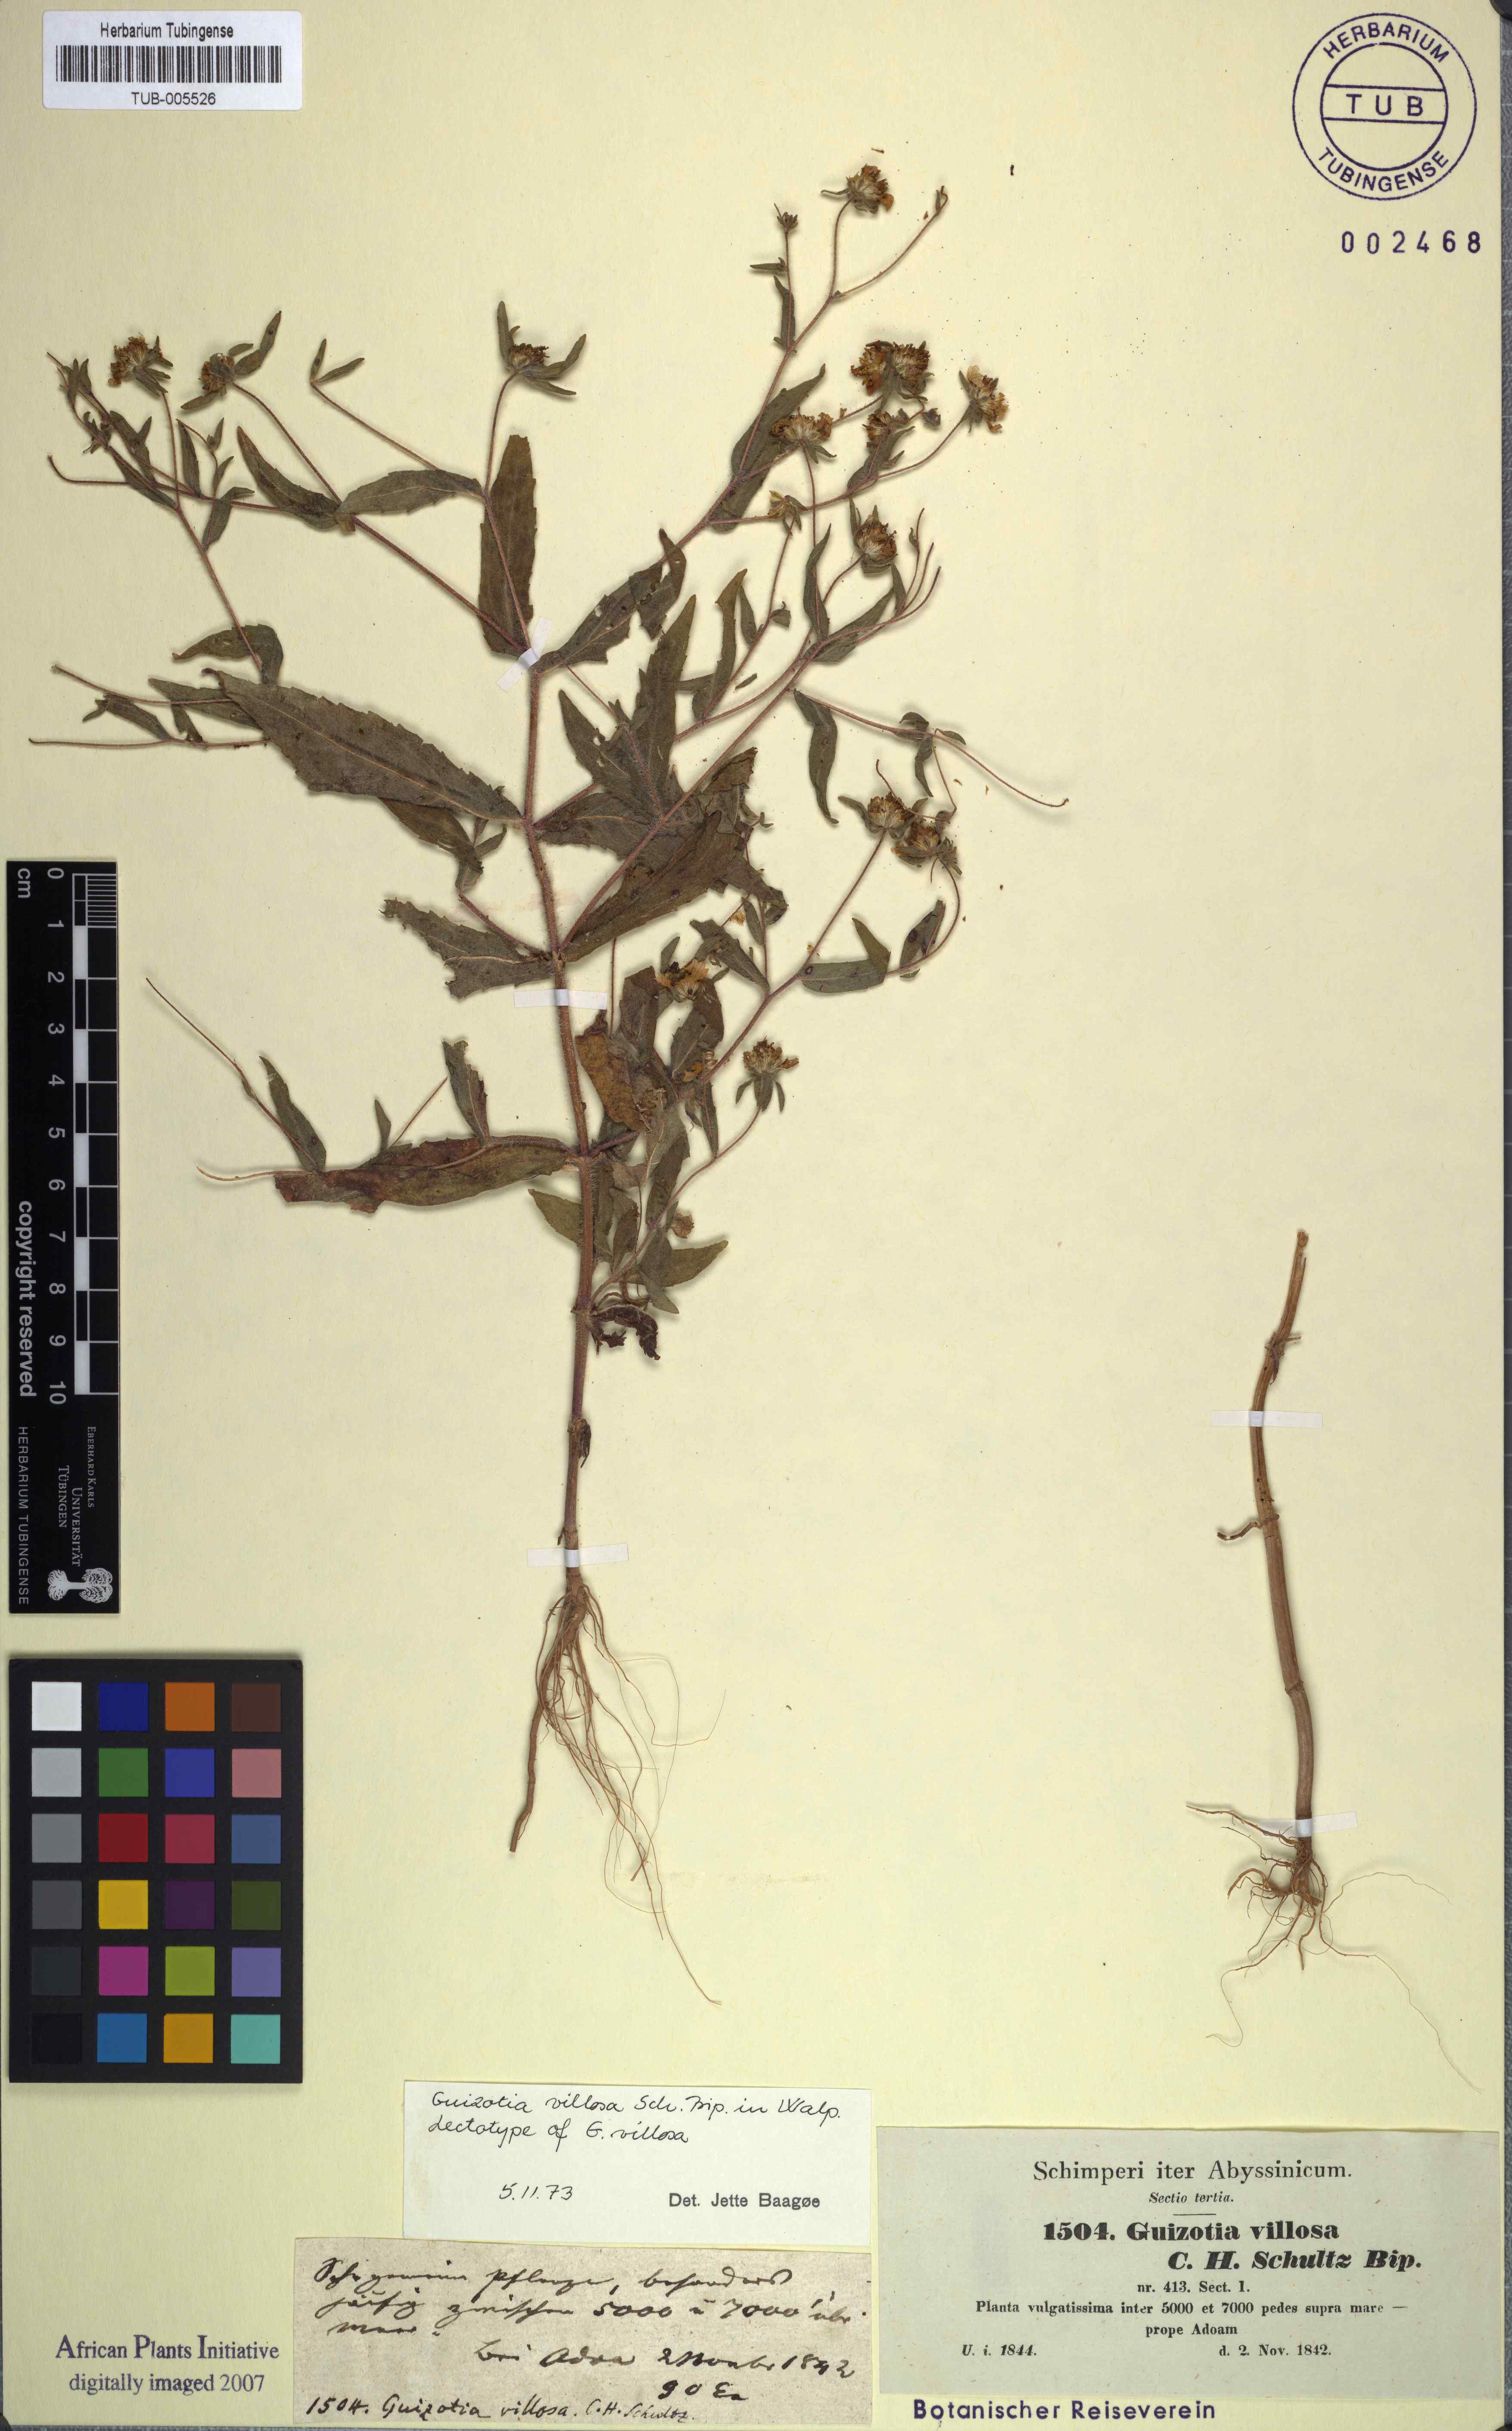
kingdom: Plantae
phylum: Tracheophyta
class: Magnoliopsida
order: Asterales
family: Asteraceae
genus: Guizotia
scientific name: Guizotia villosa
